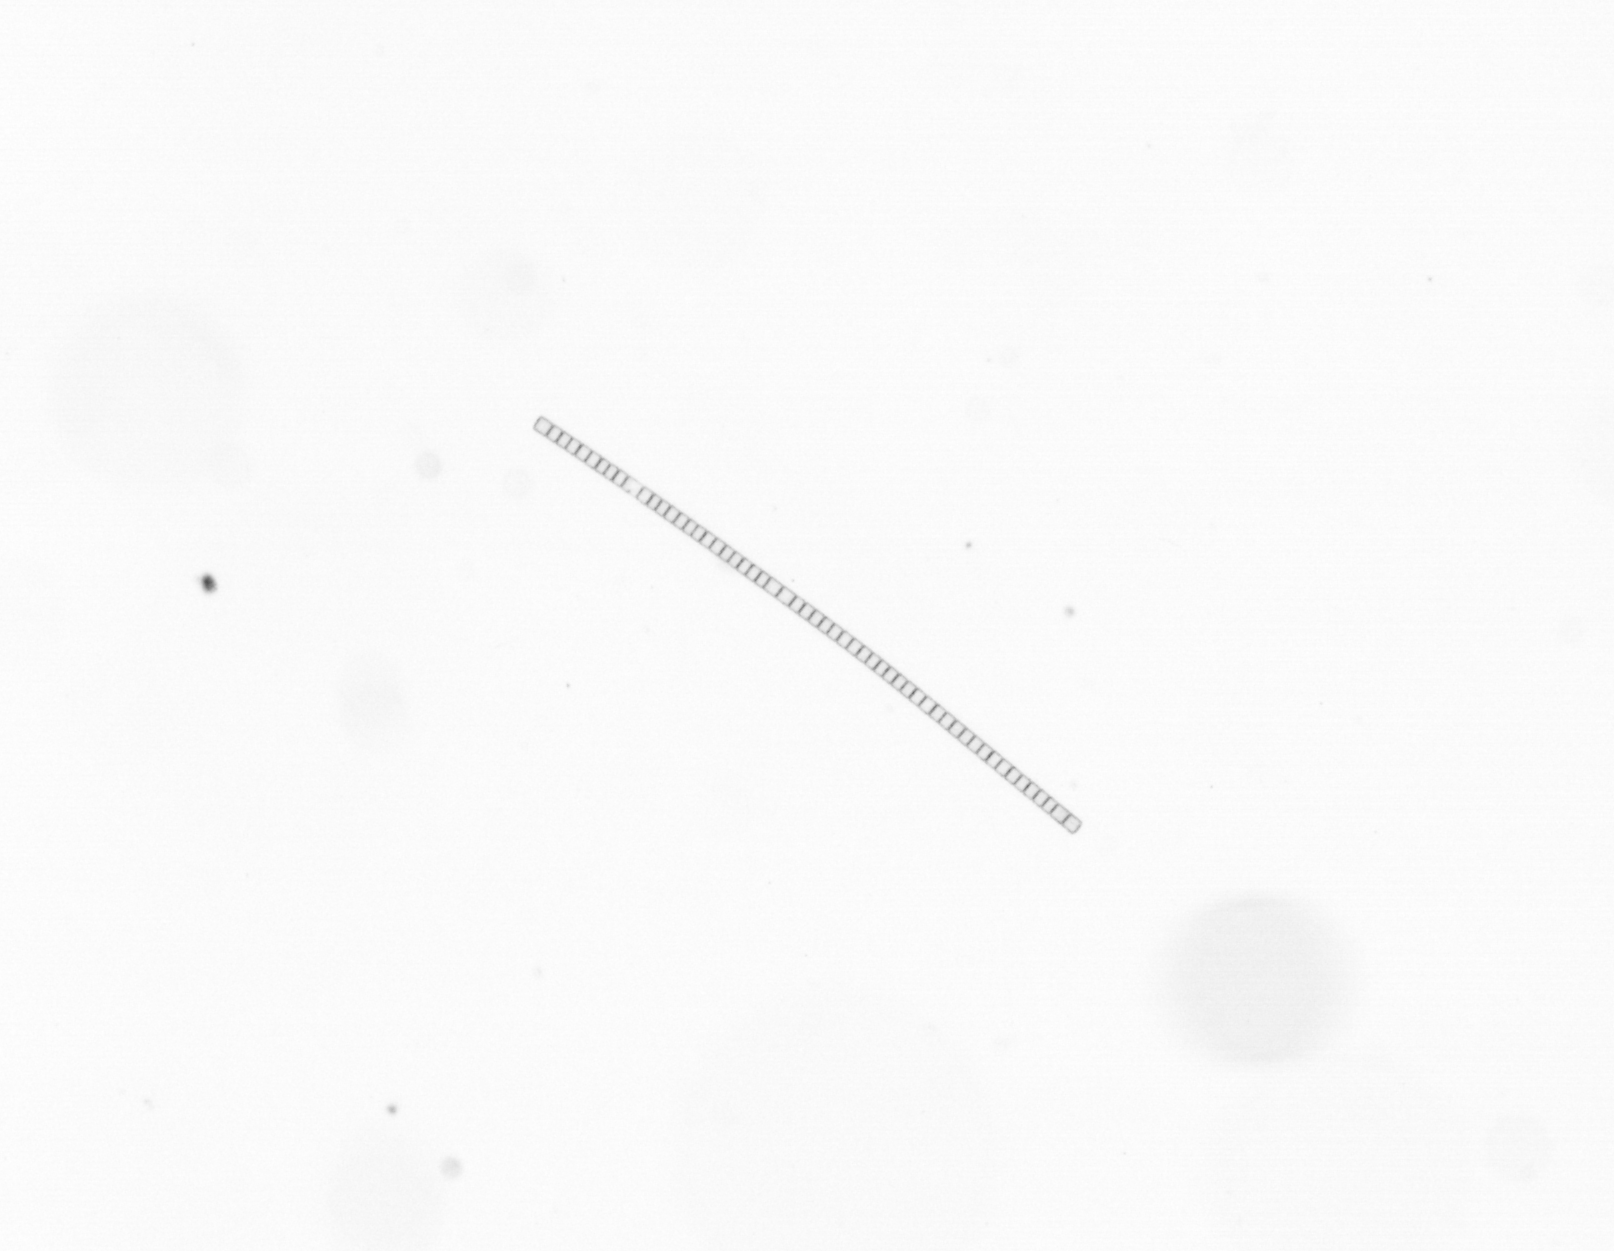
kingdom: Chromista
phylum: Ochrophyta
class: Bacillariophyceae
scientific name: Bacillariophyceae
